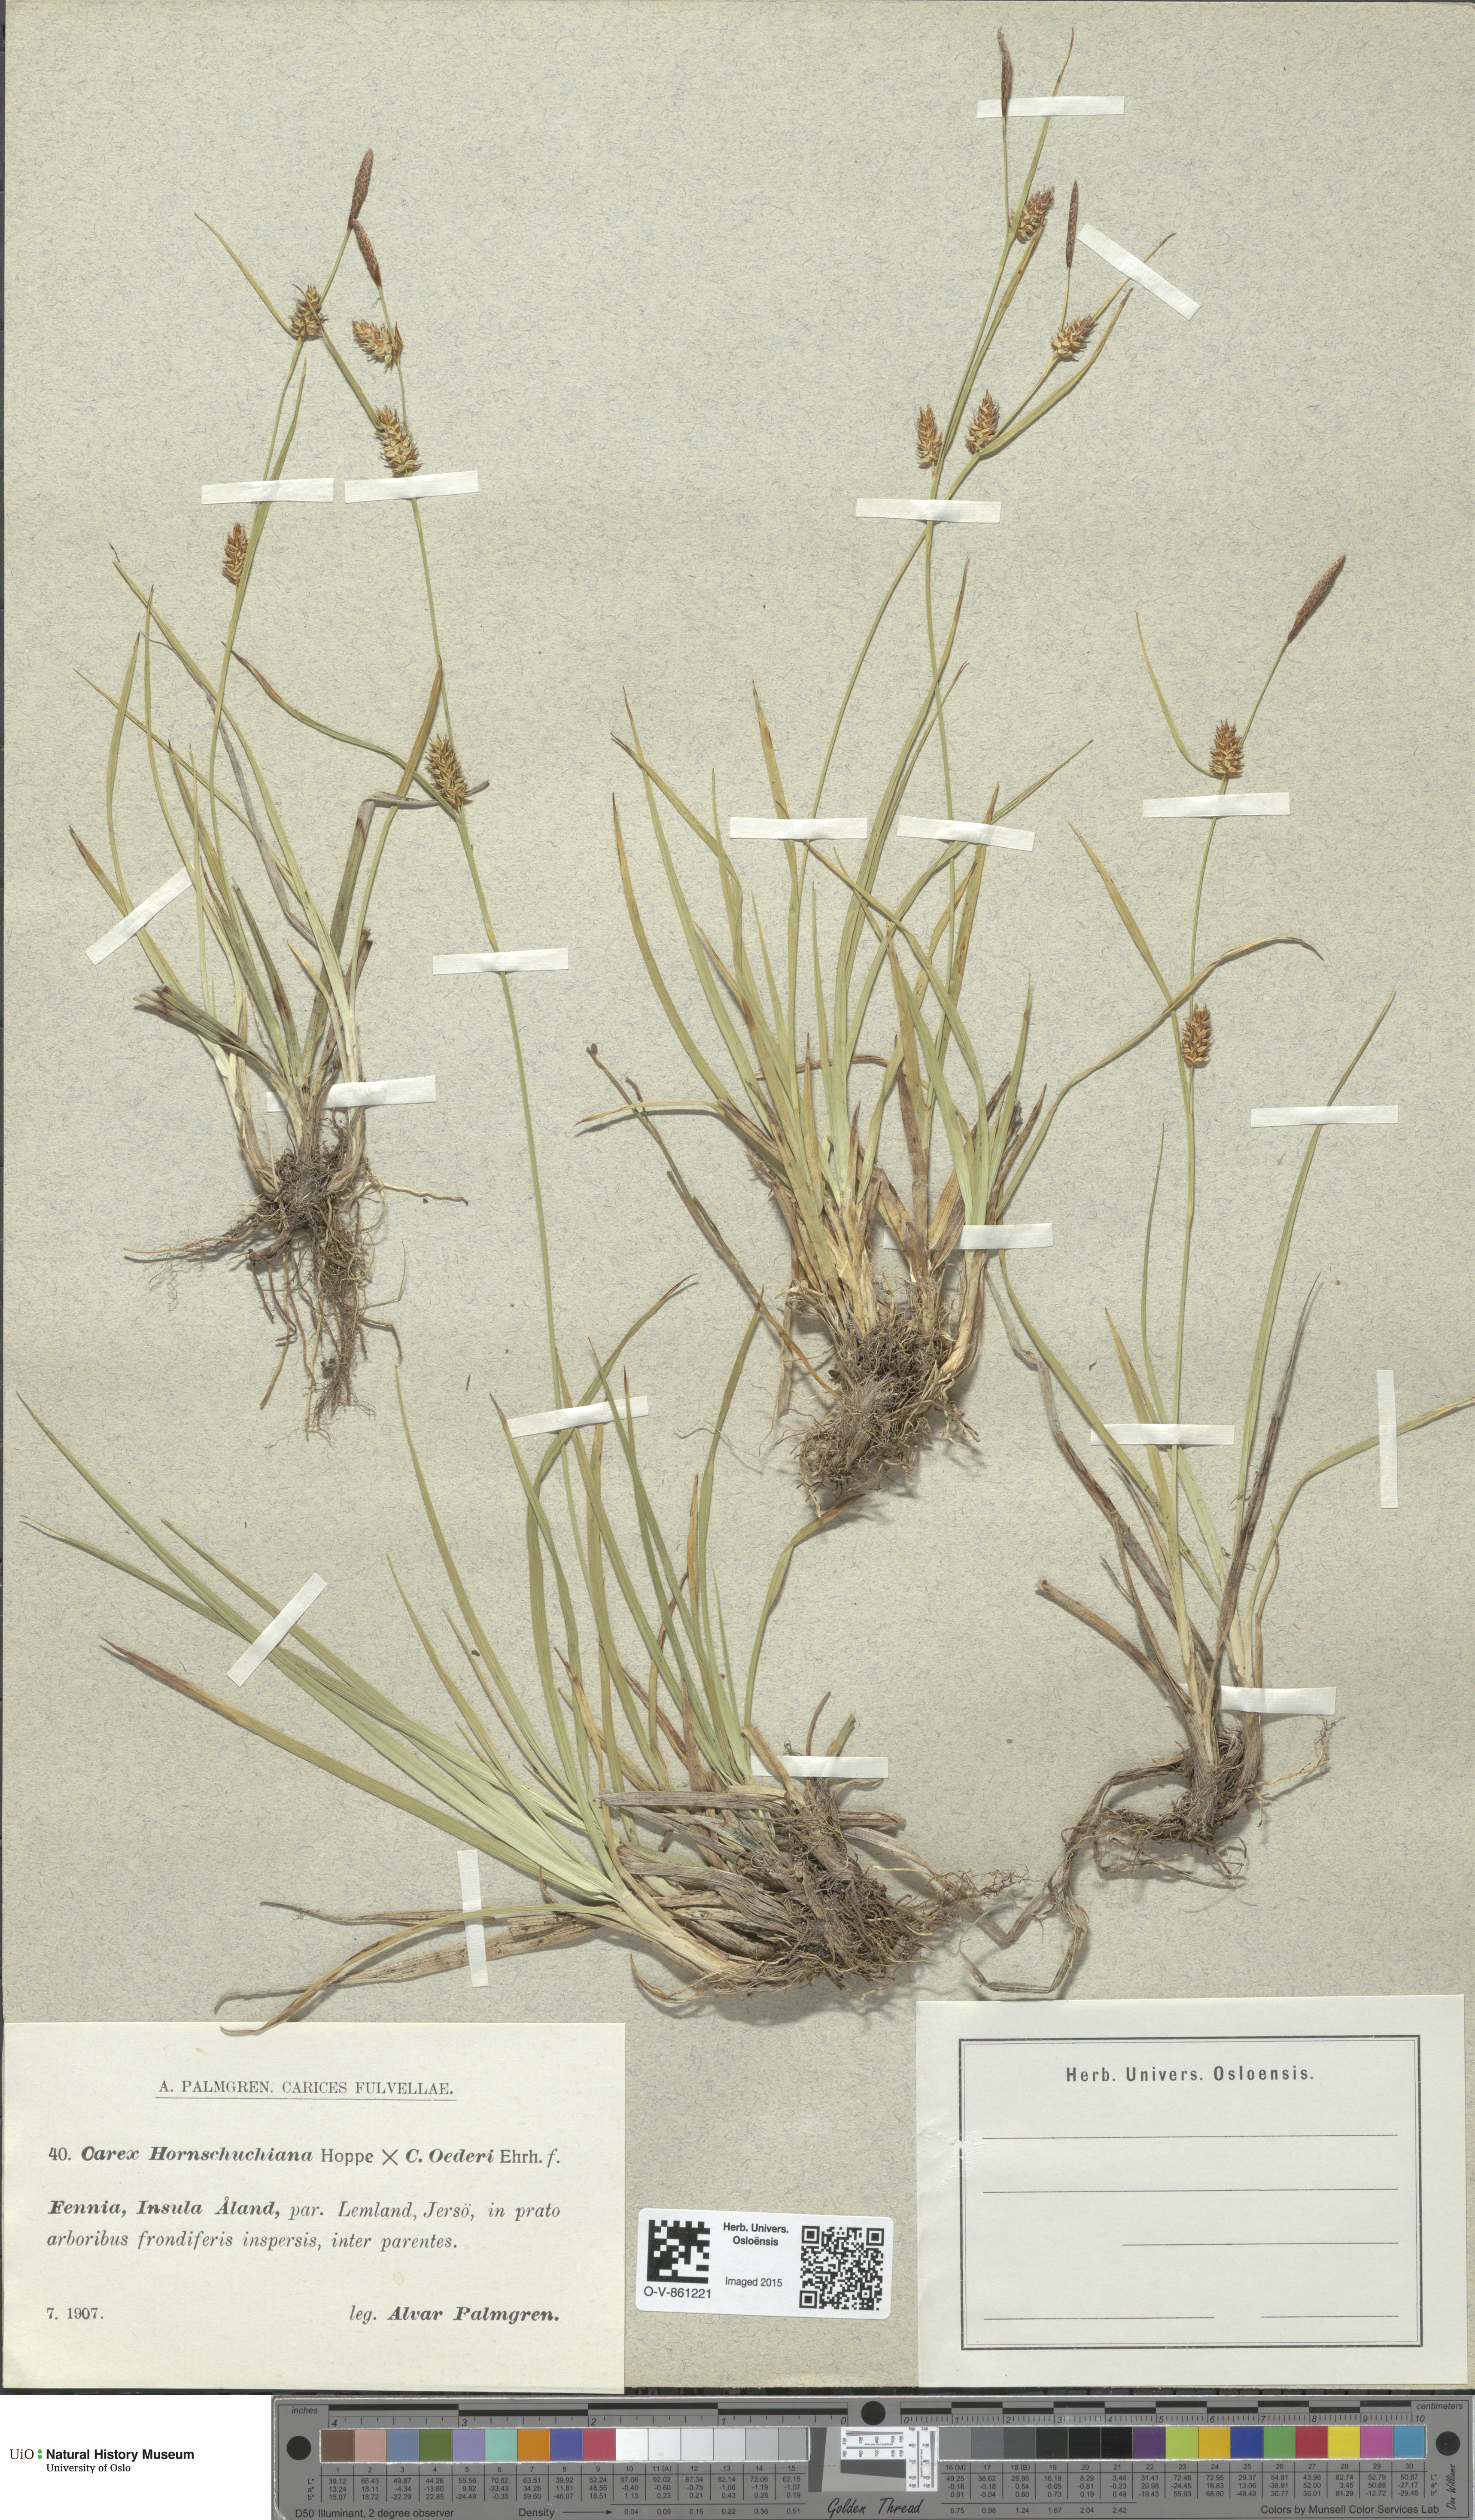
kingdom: Plantae
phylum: Tracheophyta
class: Liliopsida
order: Poales
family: Cyperaceae
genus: Carex
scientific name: Carex
